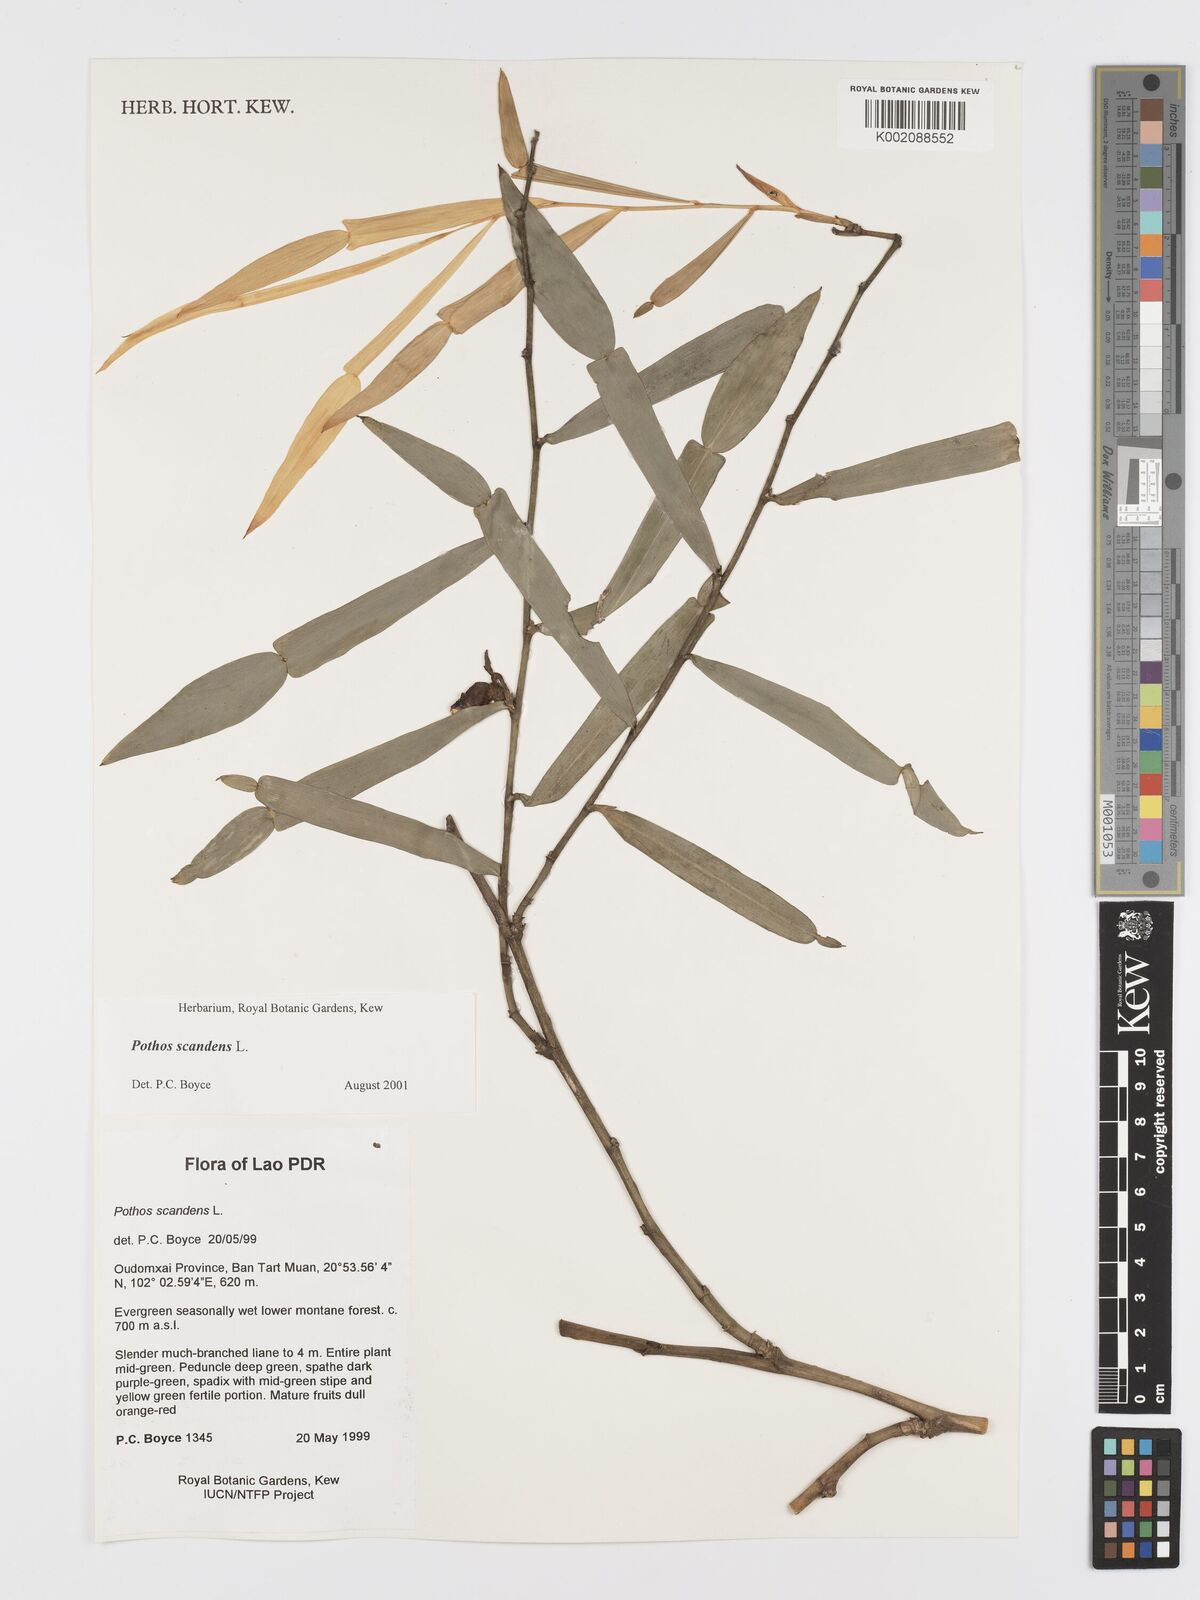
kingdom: Plantae
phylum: Tracheophyta
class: Liliopsida
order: Alismatales
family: Araceae
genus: Pothos
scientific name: Pothos scandens
